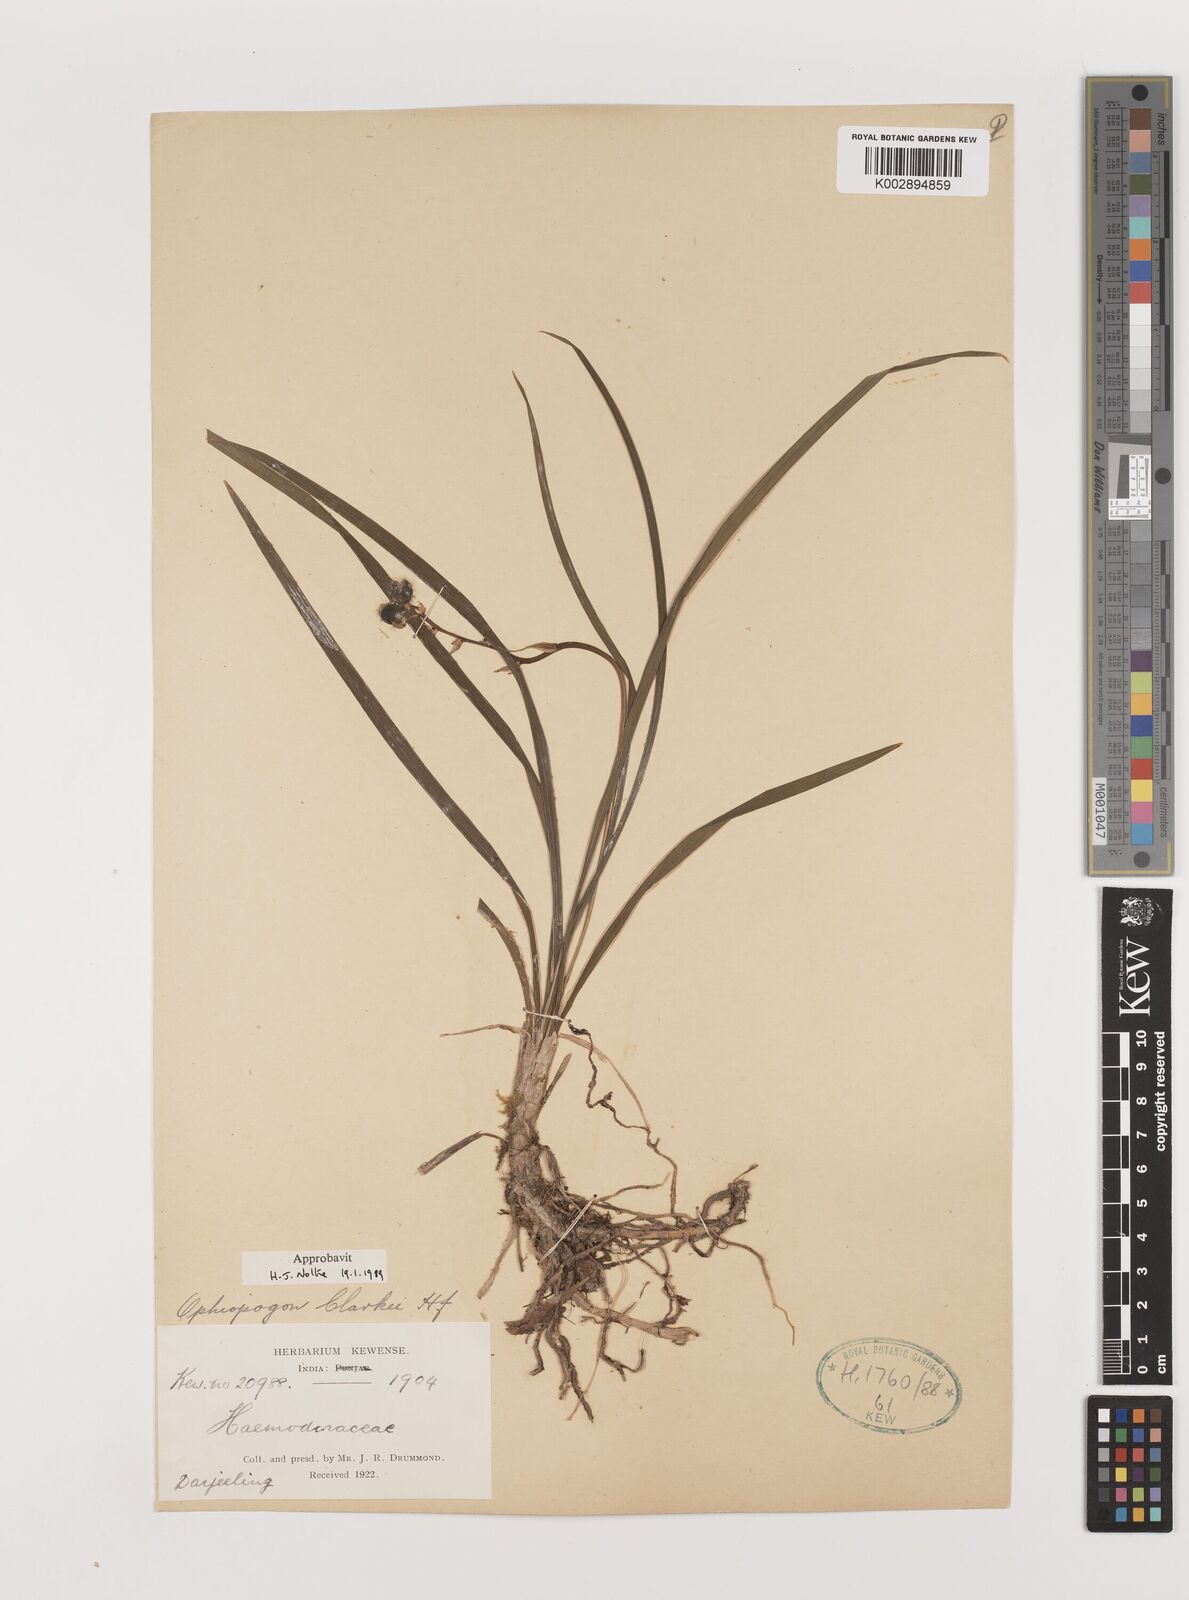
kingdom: Plantae
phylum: Tracheophyta
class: Liliopsida
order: Asparagales
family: Asparagaceae
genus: Ophiopogon
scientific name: Ophiopogon clarkei
